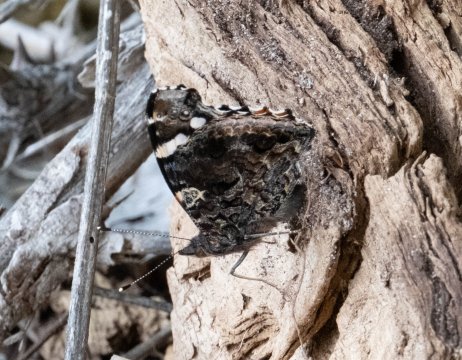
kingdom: Animalia
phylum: Arthropoda
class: Insecta
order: Lepidoptera
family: Nymphalidae
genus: Vanessa
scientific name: Vanessa atalanta
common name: Red Admiral
